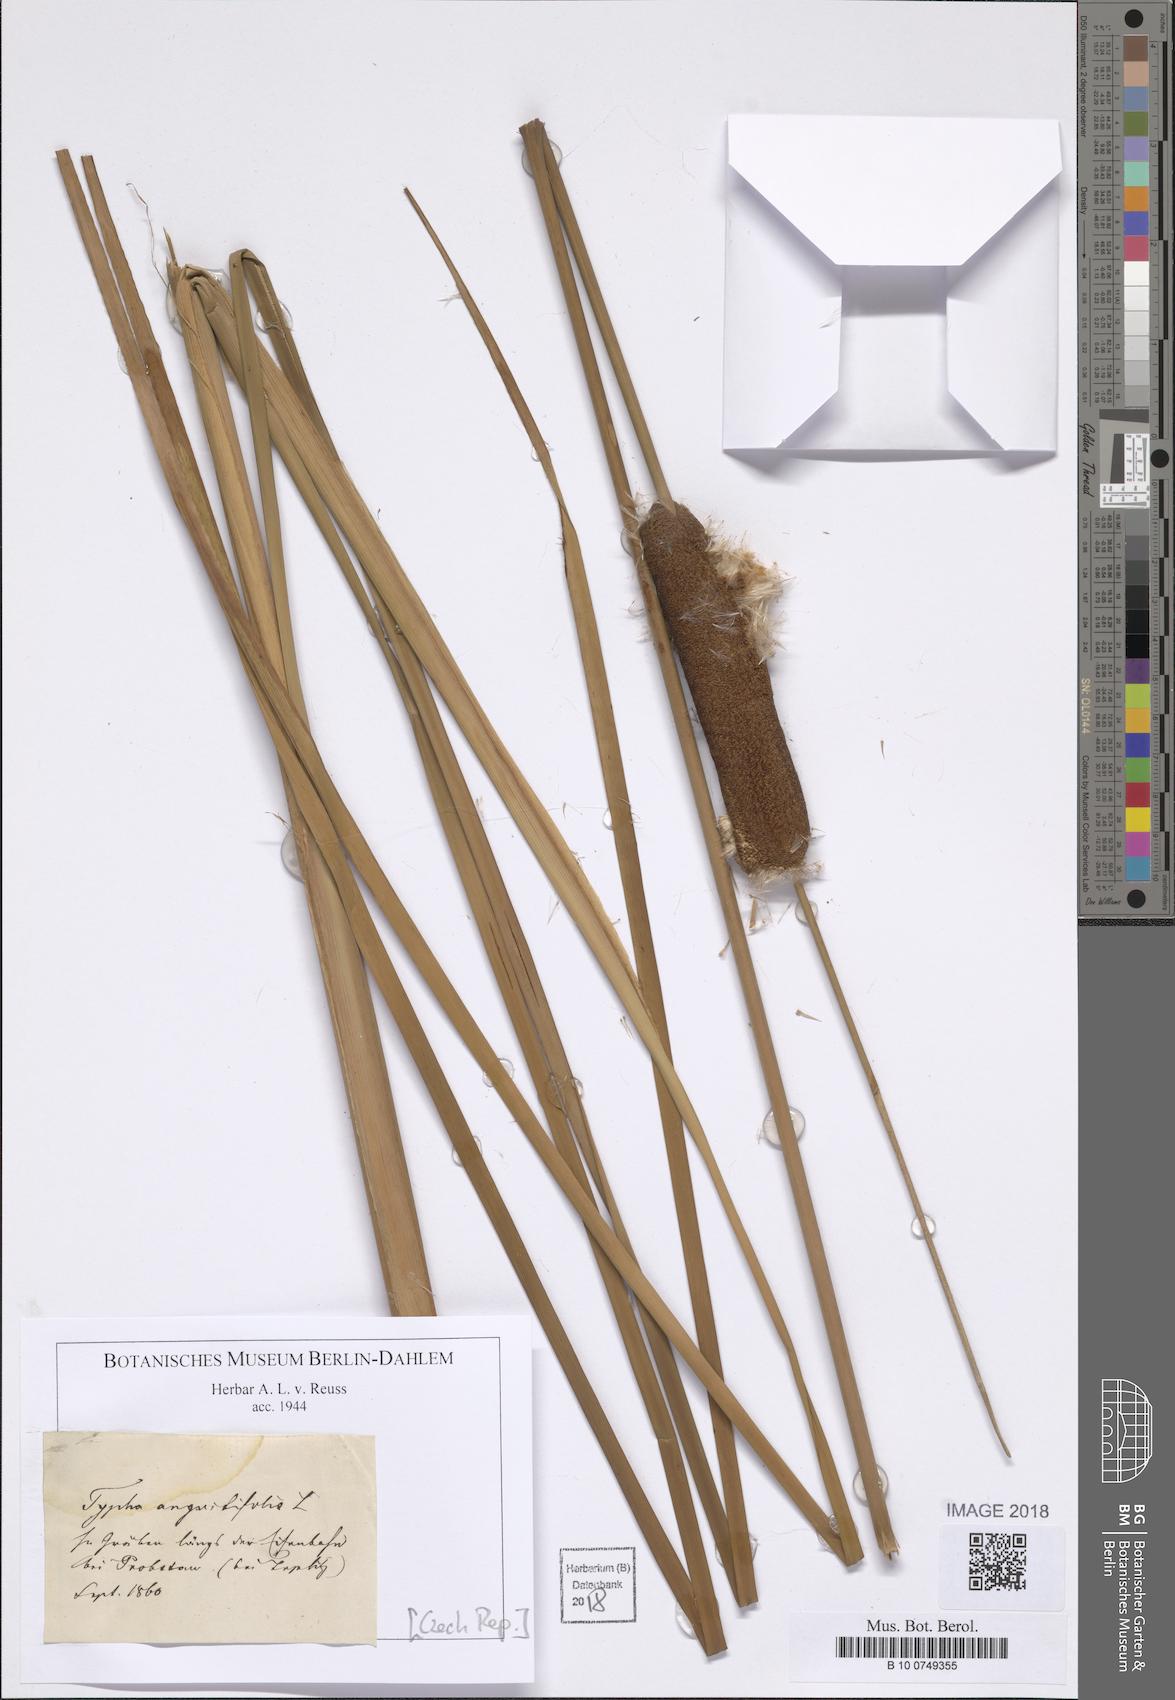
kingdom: Plantae
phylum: Tracheophyta
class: Liliopsida
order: Poales
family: Typhaceae
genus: Typha
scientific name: Typha angustifolia
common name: Lesser bulrush
